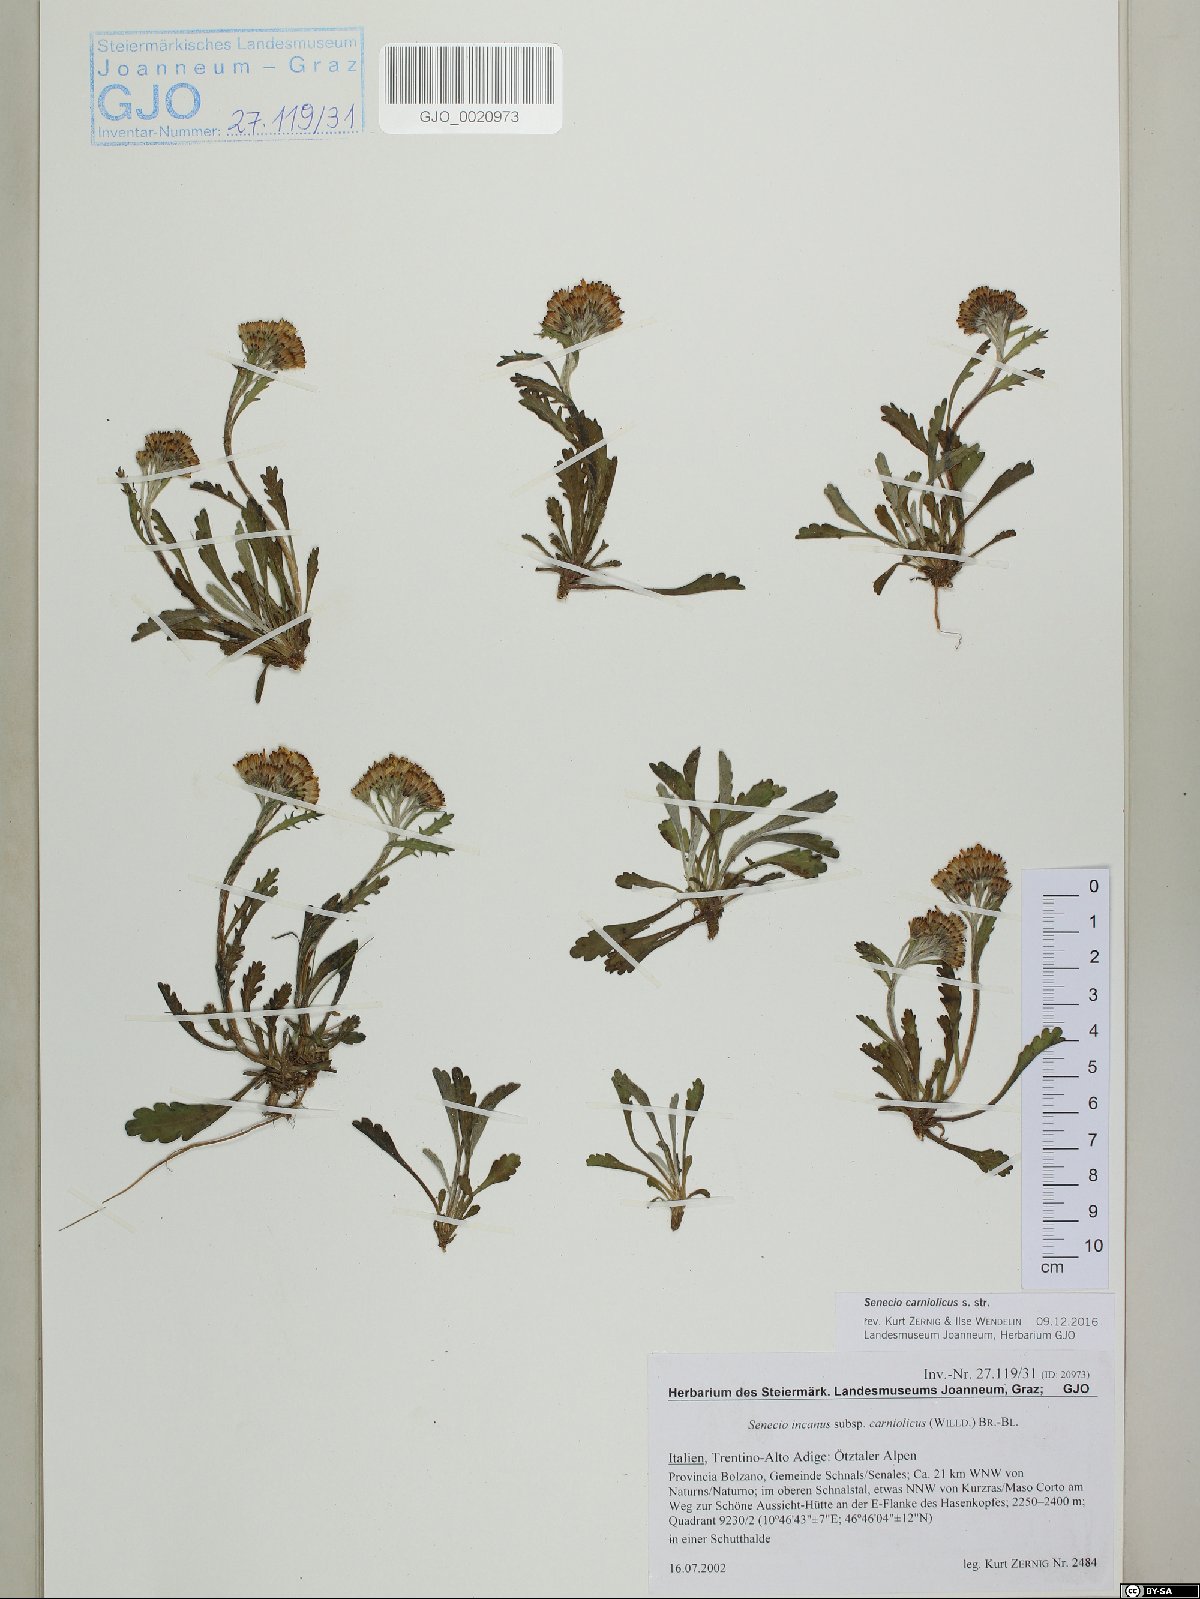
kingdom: Plantae
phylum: Tracheophyta
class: Magnoliopsida
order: Asterales
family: Asteraceae
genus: Jacobaea
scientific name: Jacobaea carniolica
